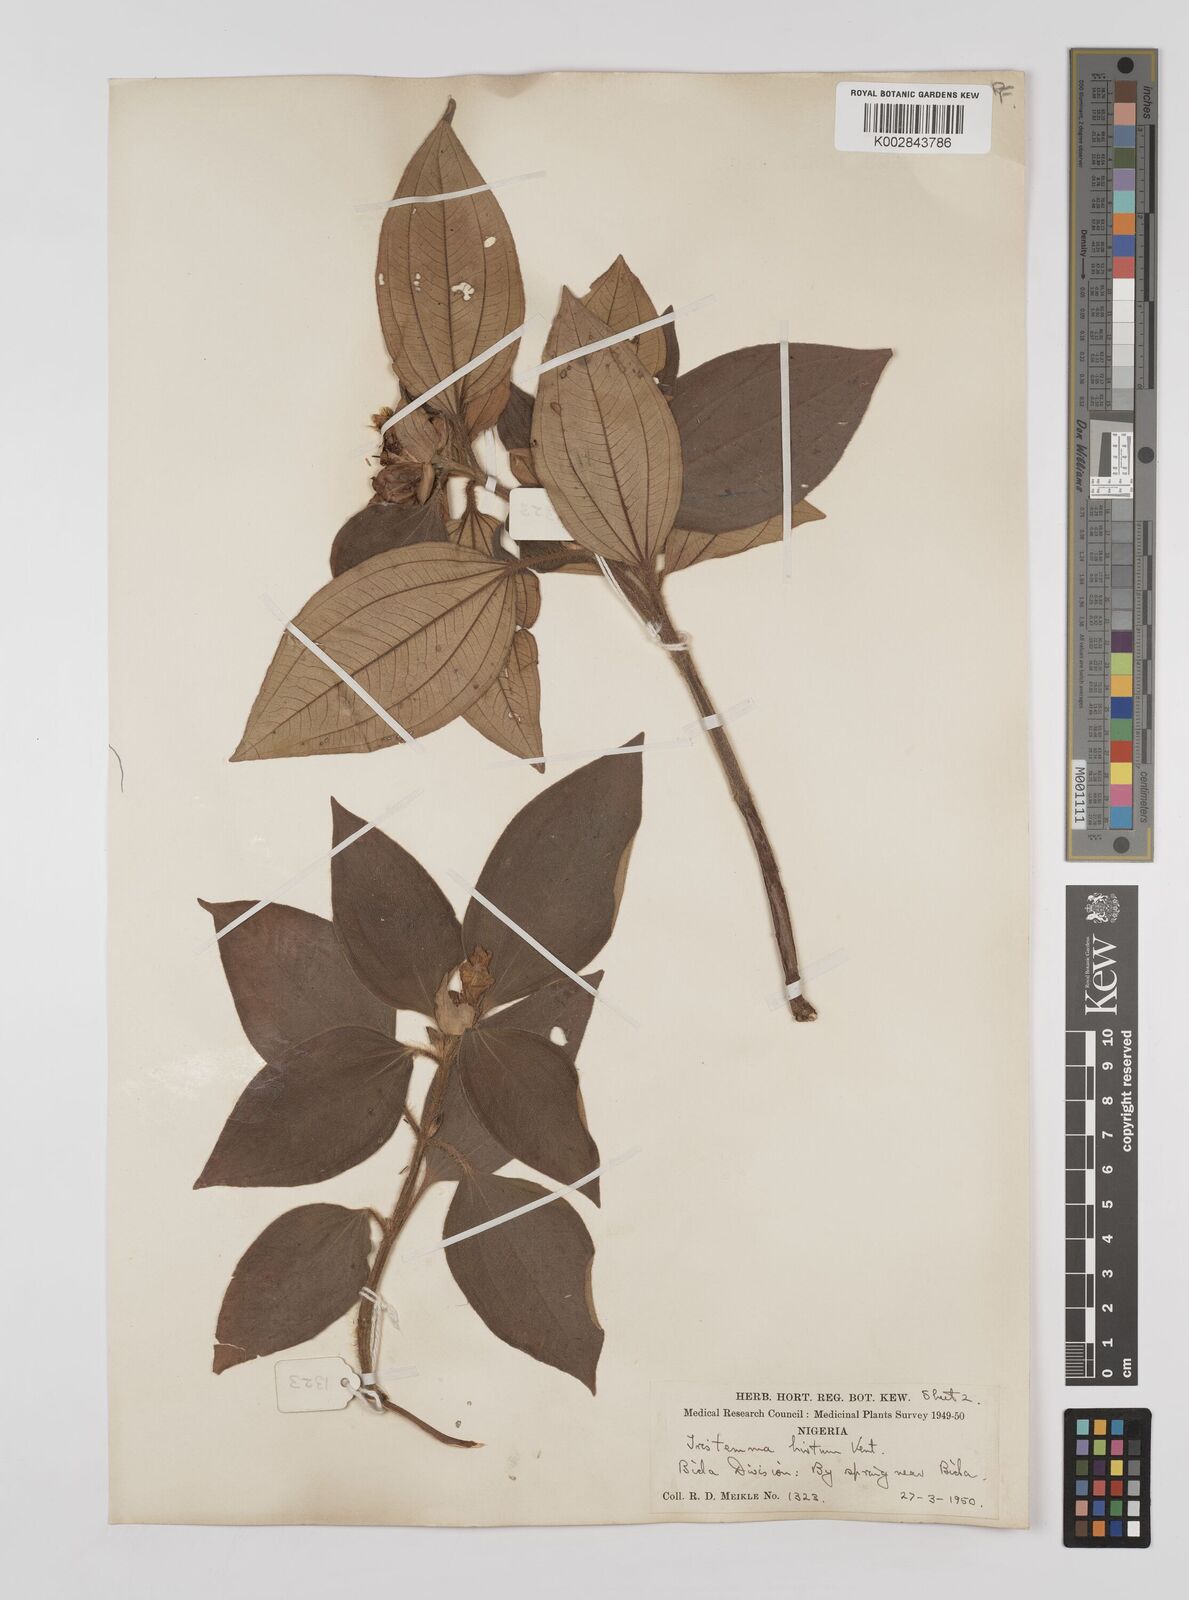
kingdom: Plantae
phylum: Tracheophyta
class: Magnoliopsida
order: Myrtales
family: Melastomataceae
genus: Tristemma
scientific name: Tristemma hirtum
